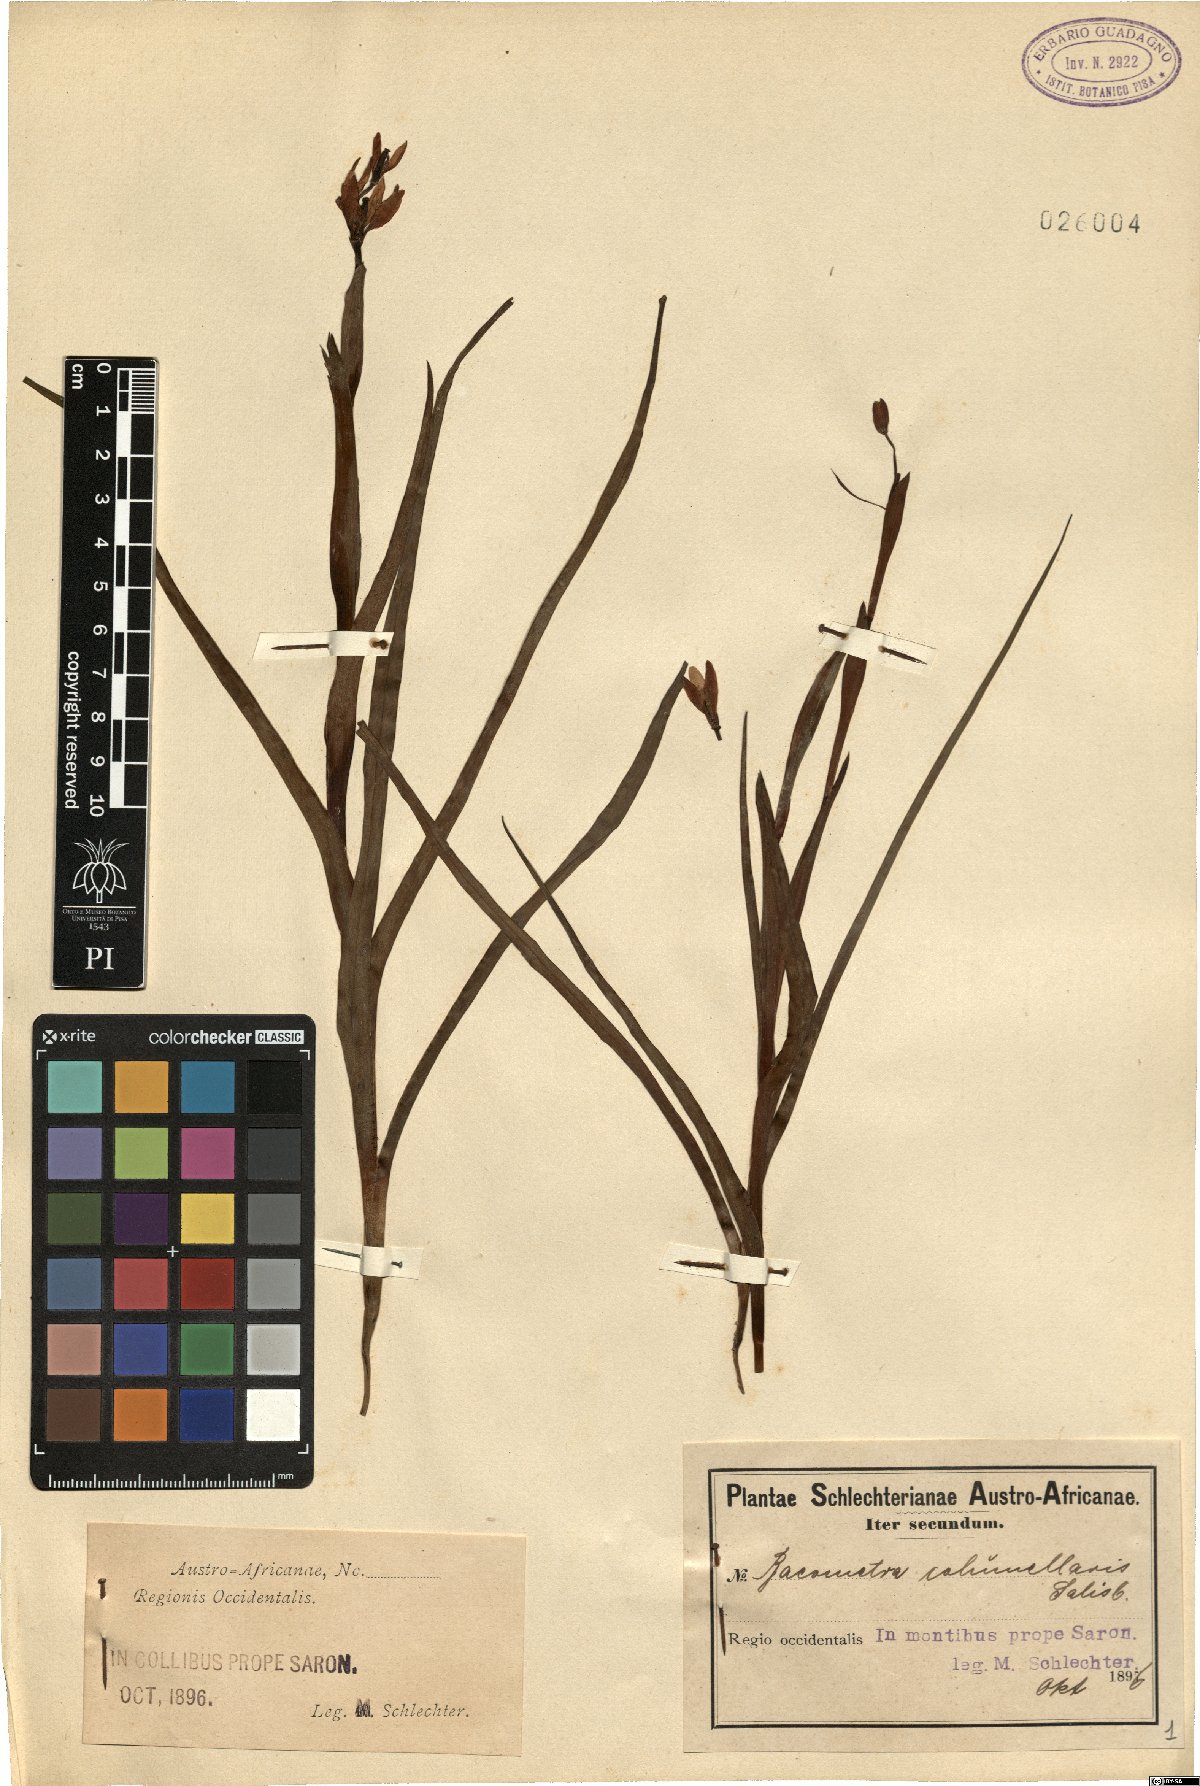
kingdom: Plantae
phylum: Tracheophyta
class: Liliopsida
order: Liliales
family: Colchicaceae
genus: Baeometra
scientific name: Baeometra uniflora
